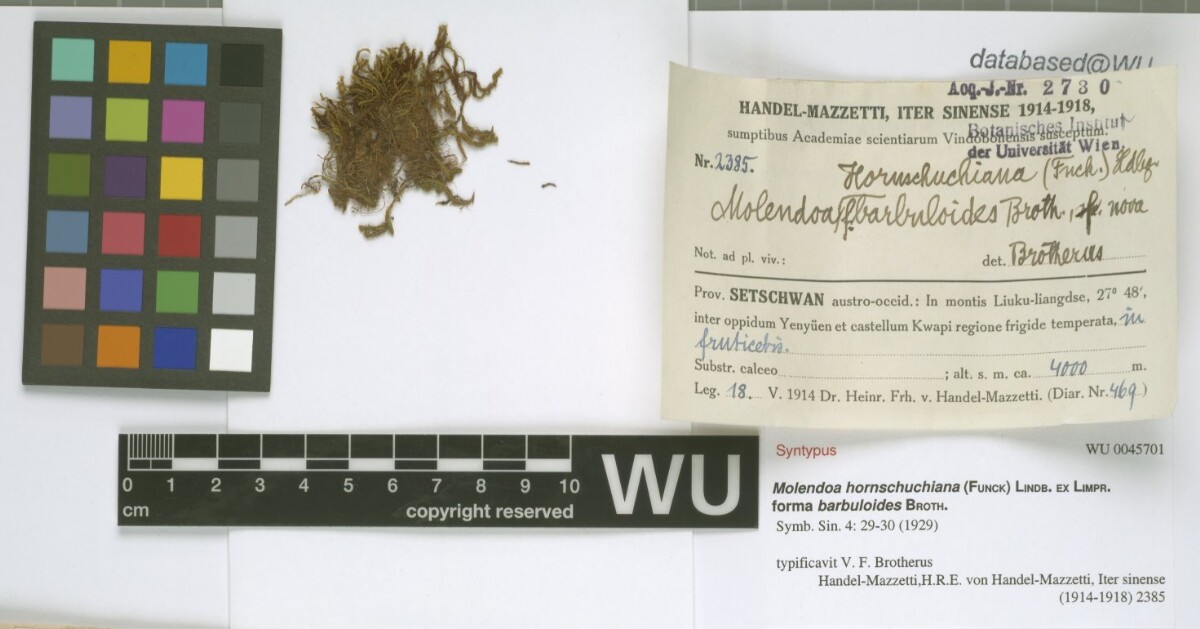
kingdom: Plantae
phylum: Bryophyta
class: Bryopsida
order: Pottiales
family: Pottiaceae
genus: Molendoa
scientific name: Molendoa hornschuchiana
